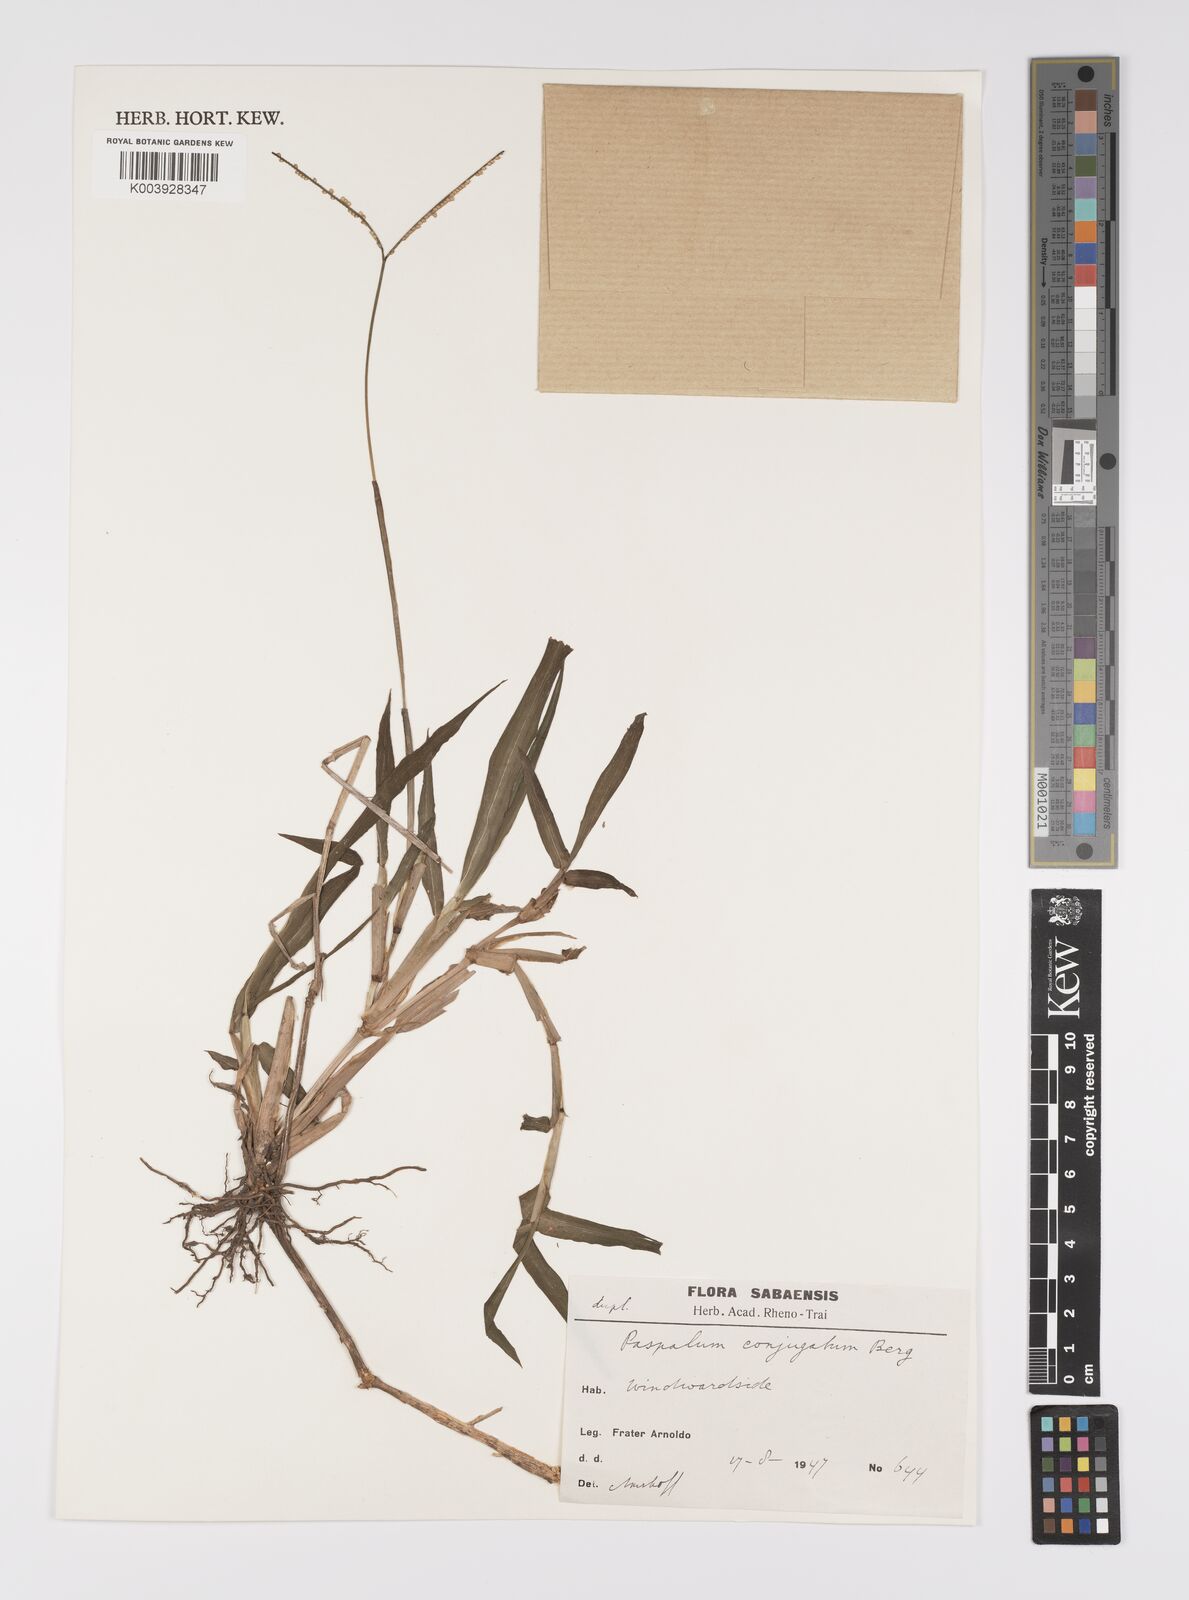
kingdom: Plantae
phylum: Tracheophyta
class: Liliopsida
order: Poales
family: Poaceae
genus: Paspalum
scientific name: Paspalum conjugatum
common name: Hilograss
